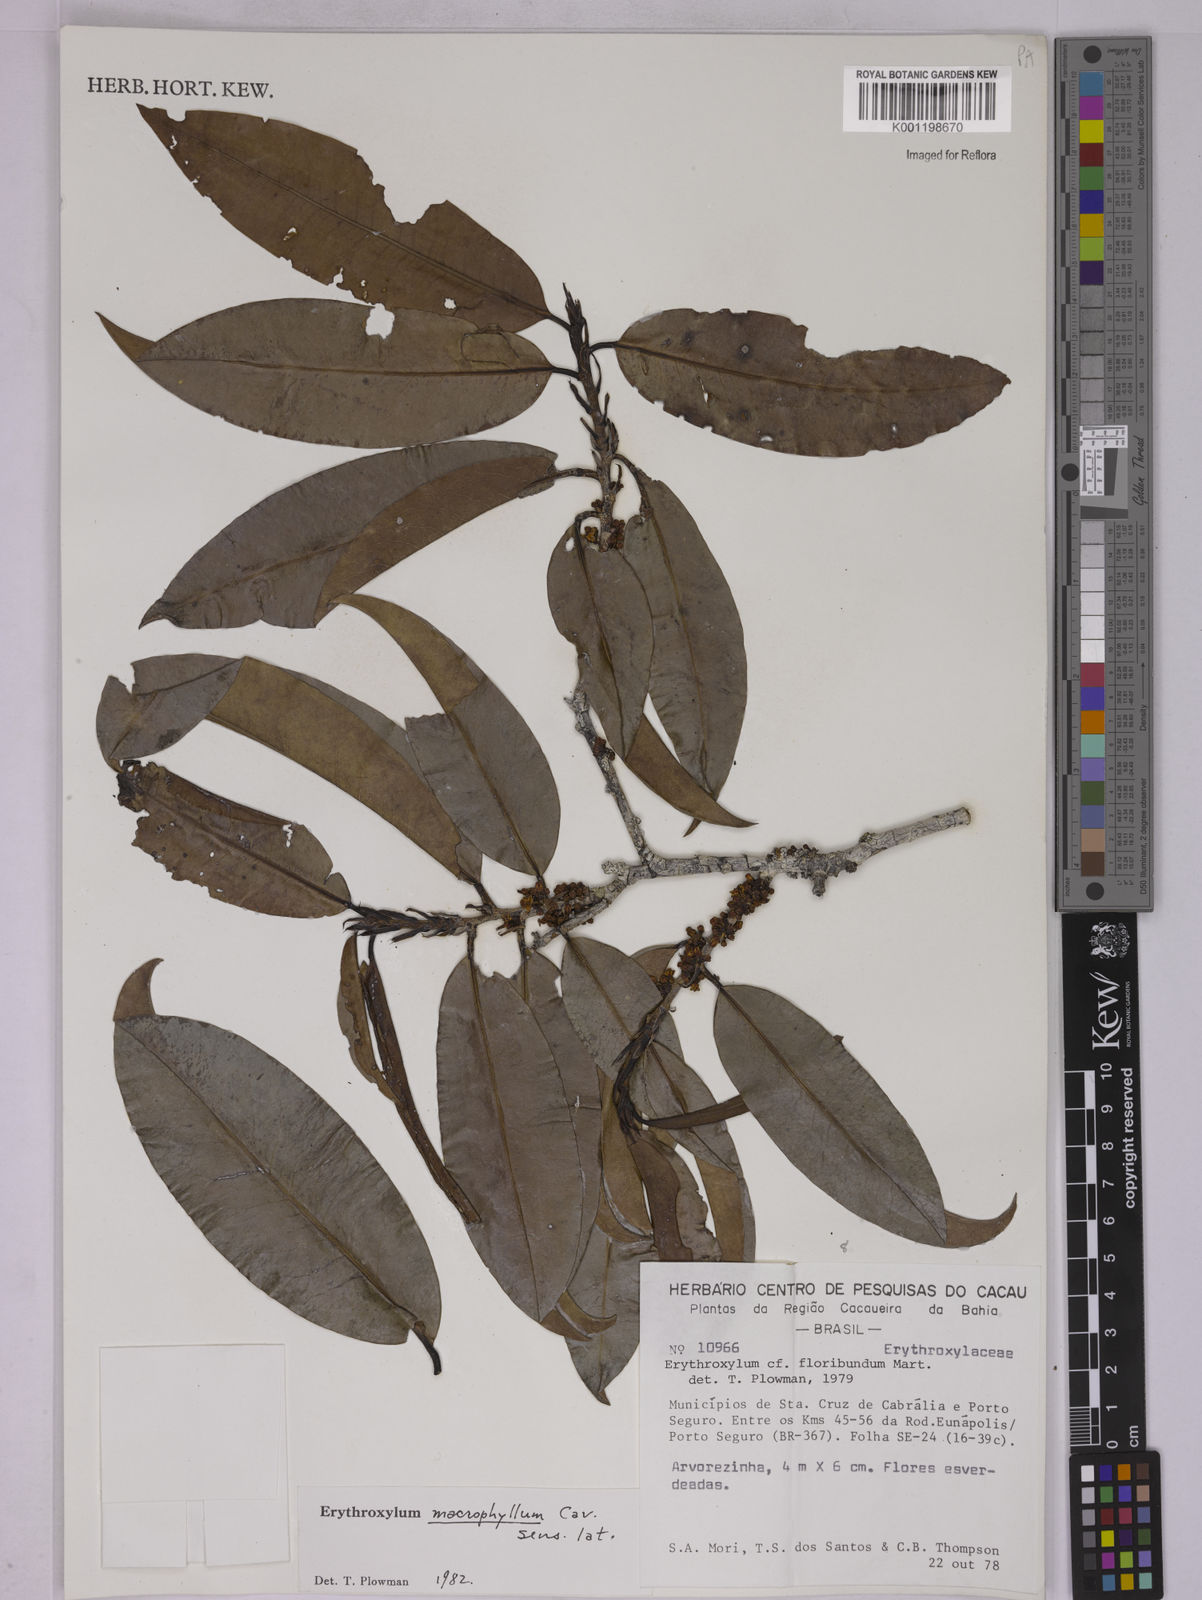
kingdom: Plantae
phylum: Tracheophyta
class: Magnoliopsida
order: Malpighiales
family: Erythroxylaceae
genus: Erythroxylum
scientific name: Erythroxylum macrophyllum
